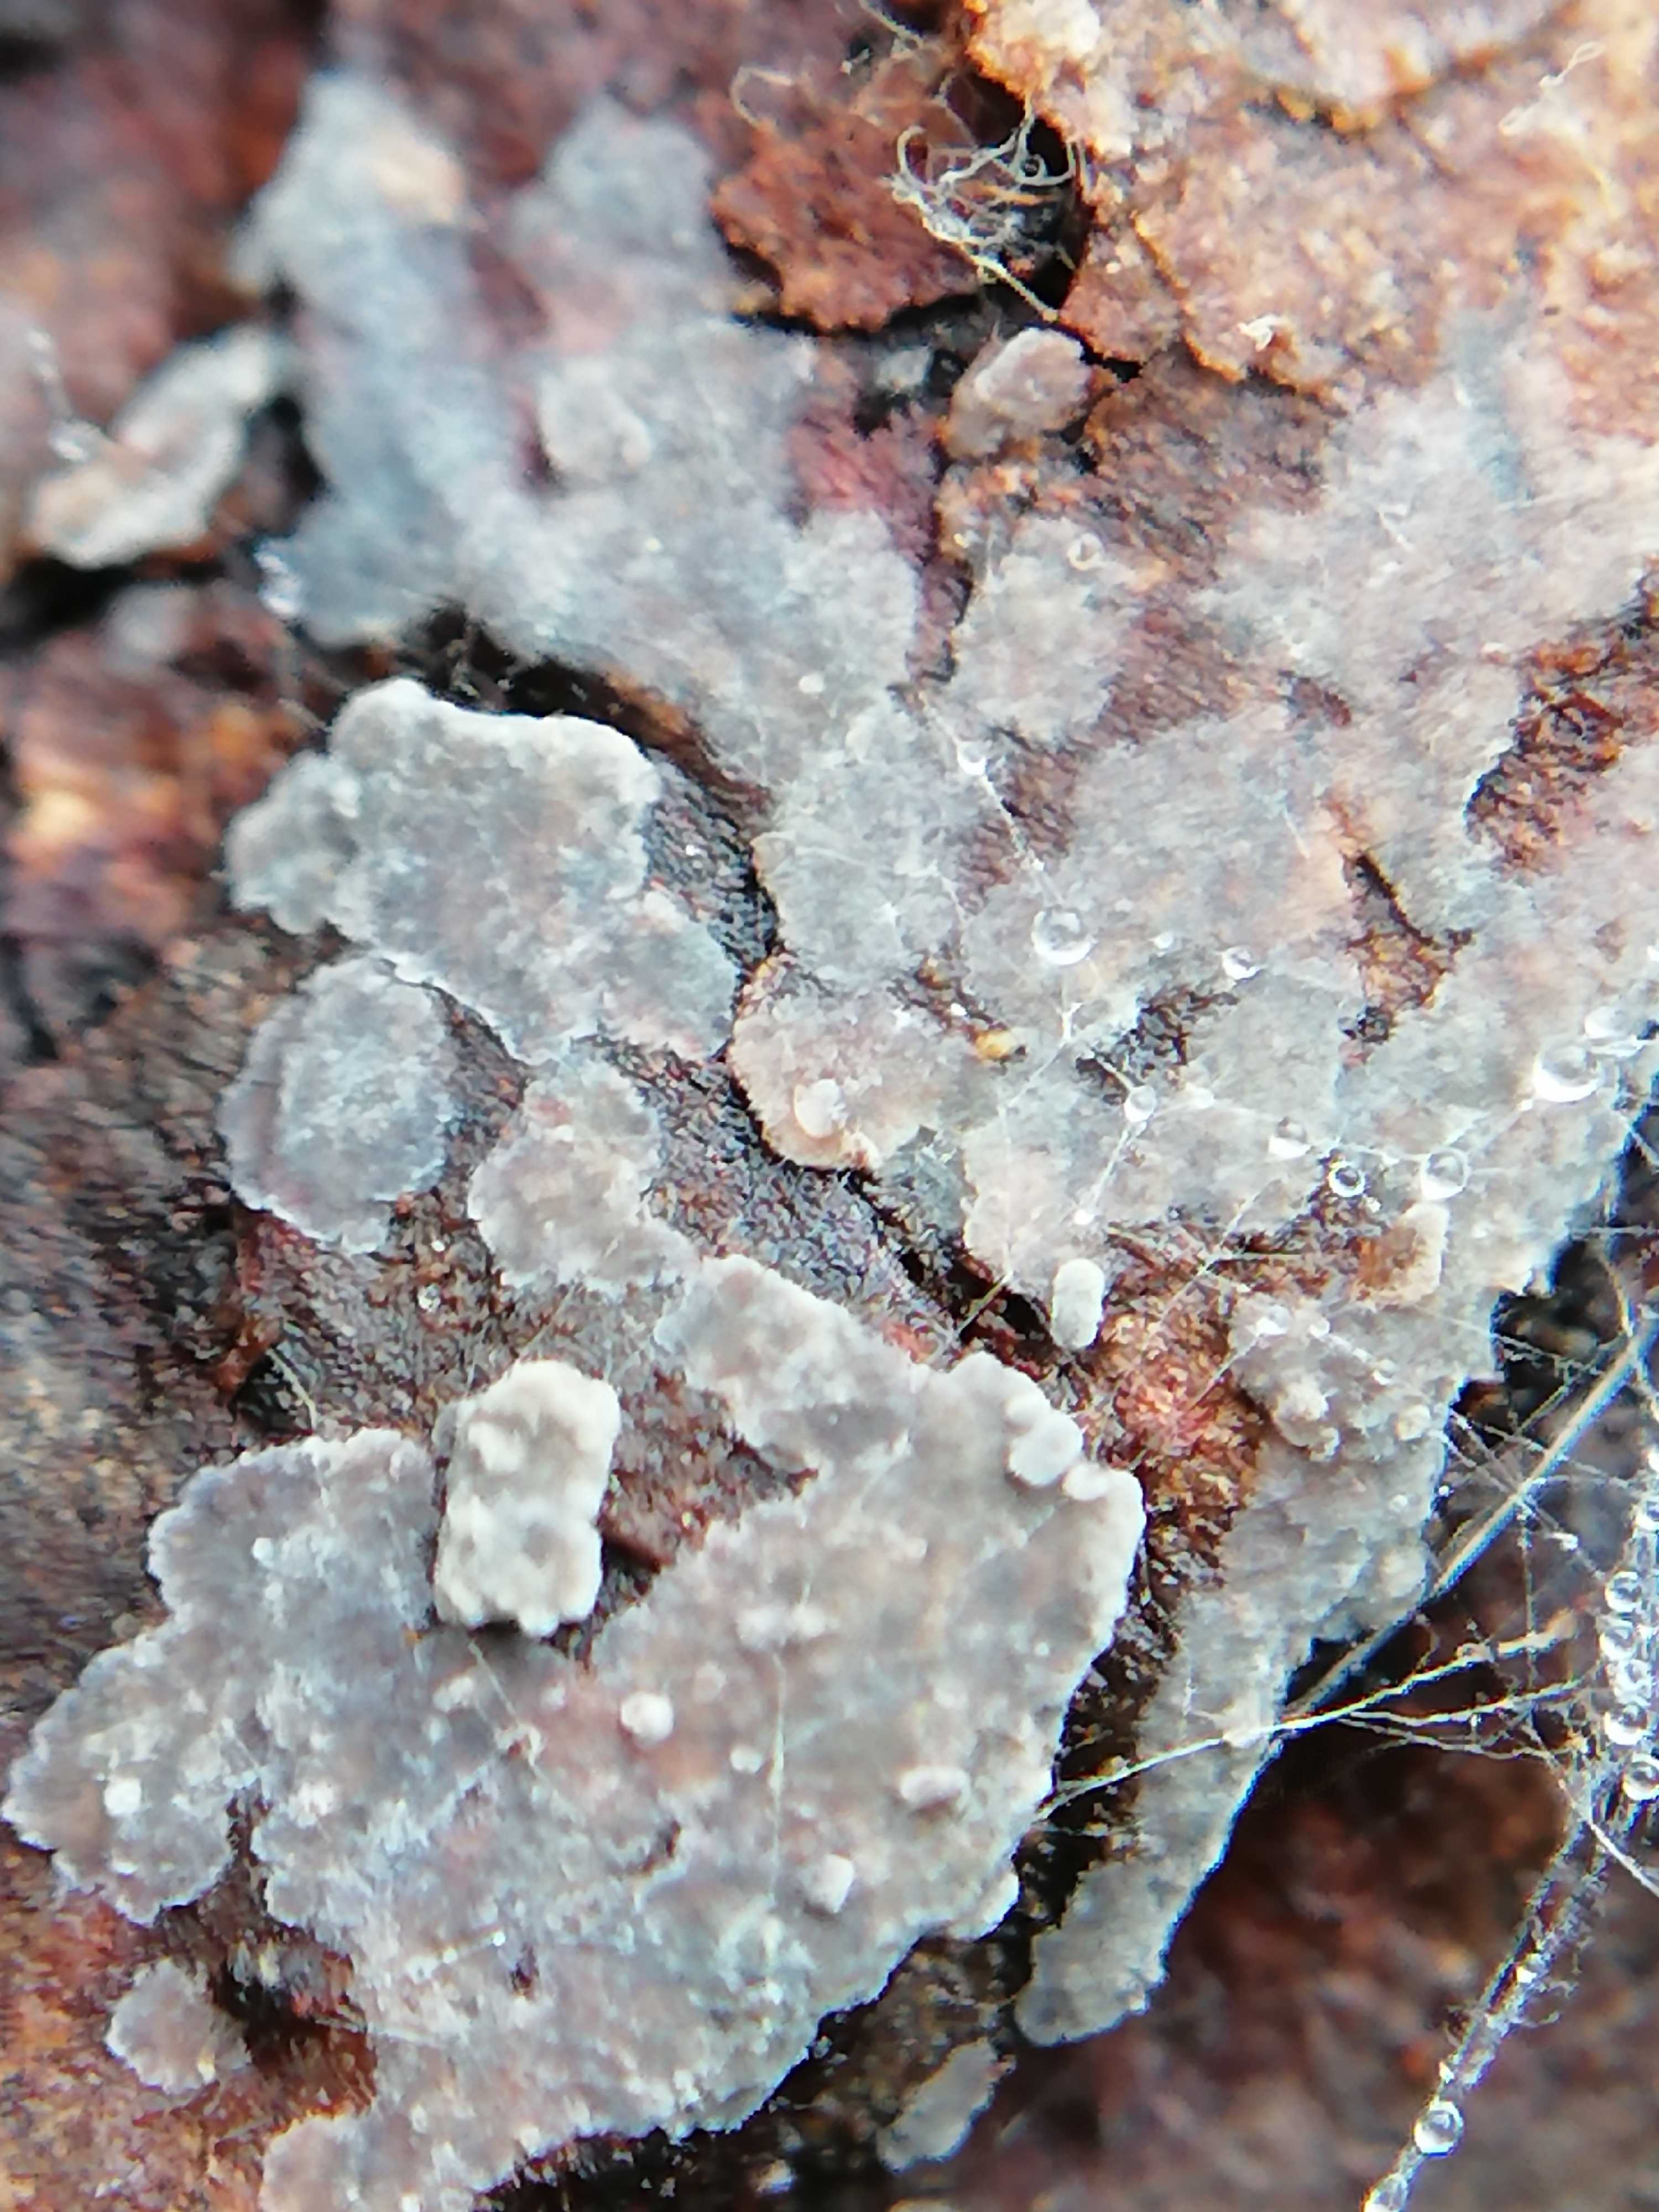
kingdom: Fungi
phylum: Basidiomycota
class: Agaricomycetes
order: Corticiales
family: Corticiaceae
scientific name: Corticiaceae
